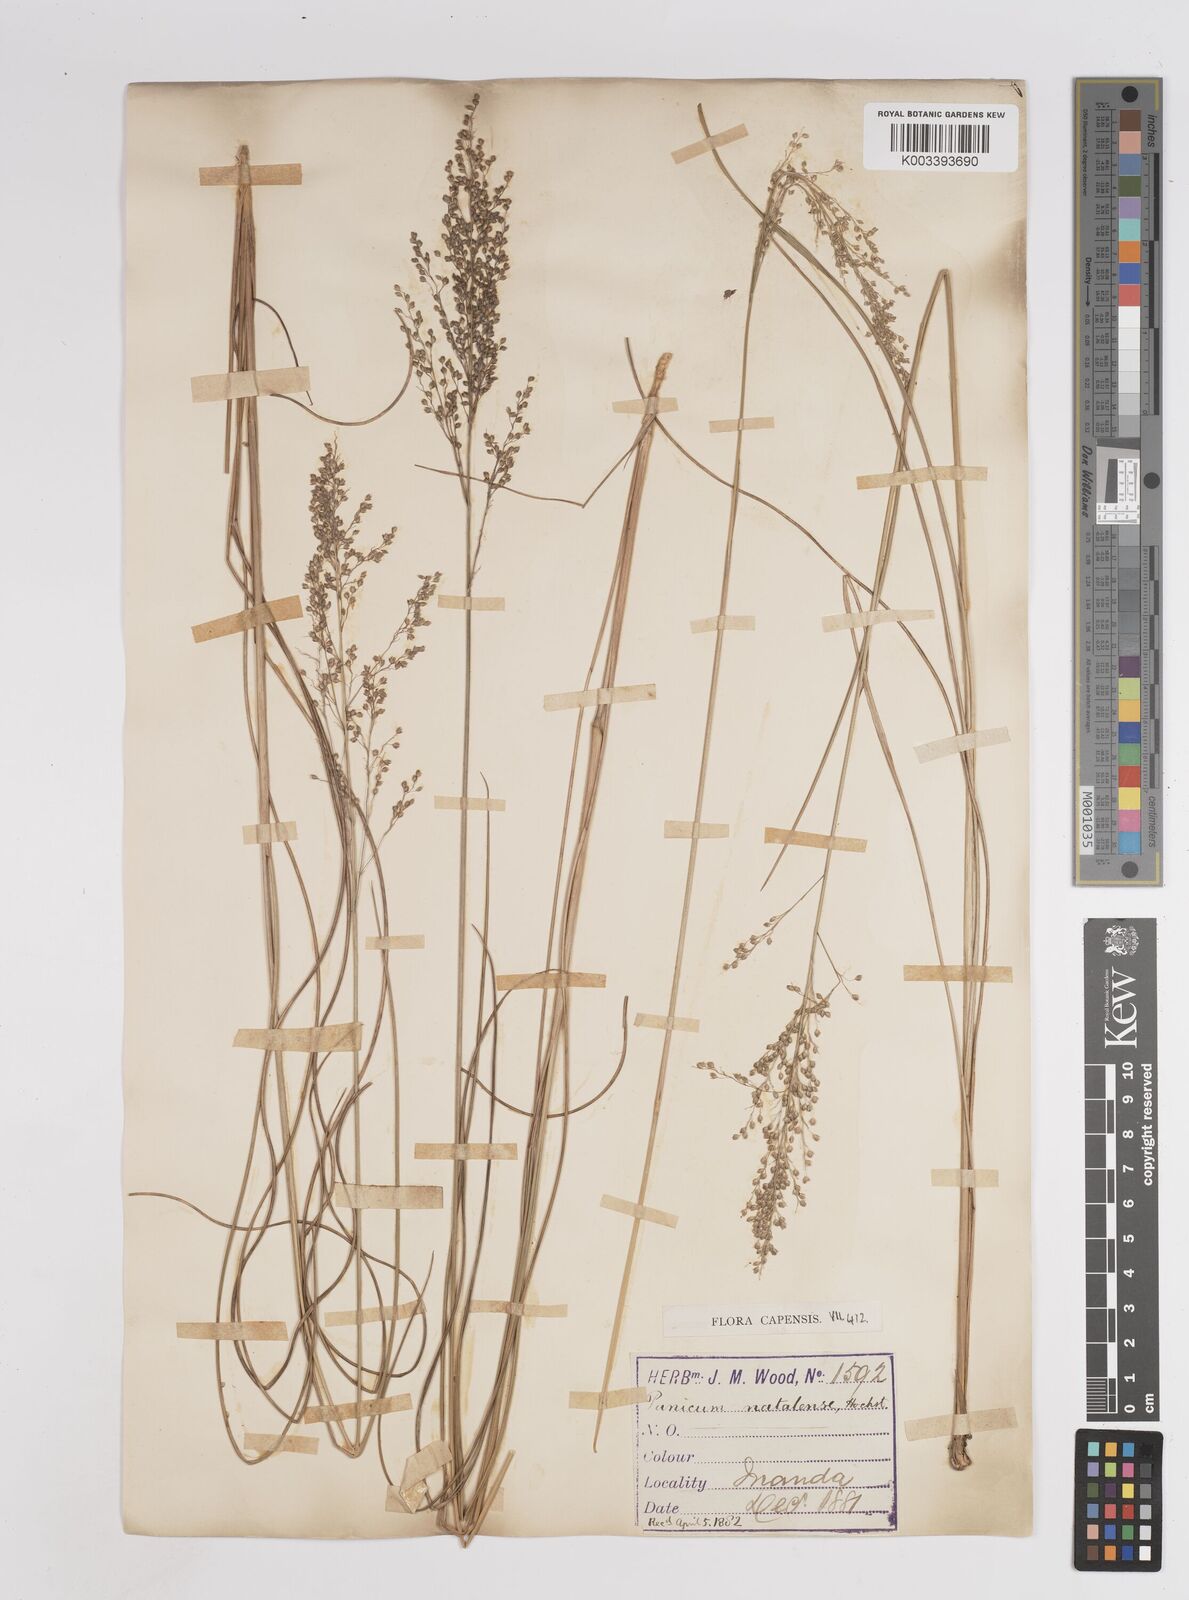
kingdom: Plantae
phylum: Tracheophyta
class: Liliopsida
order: Poales
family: Poaceae
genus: Trichanthecium
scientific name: Trichanthecium natalense
